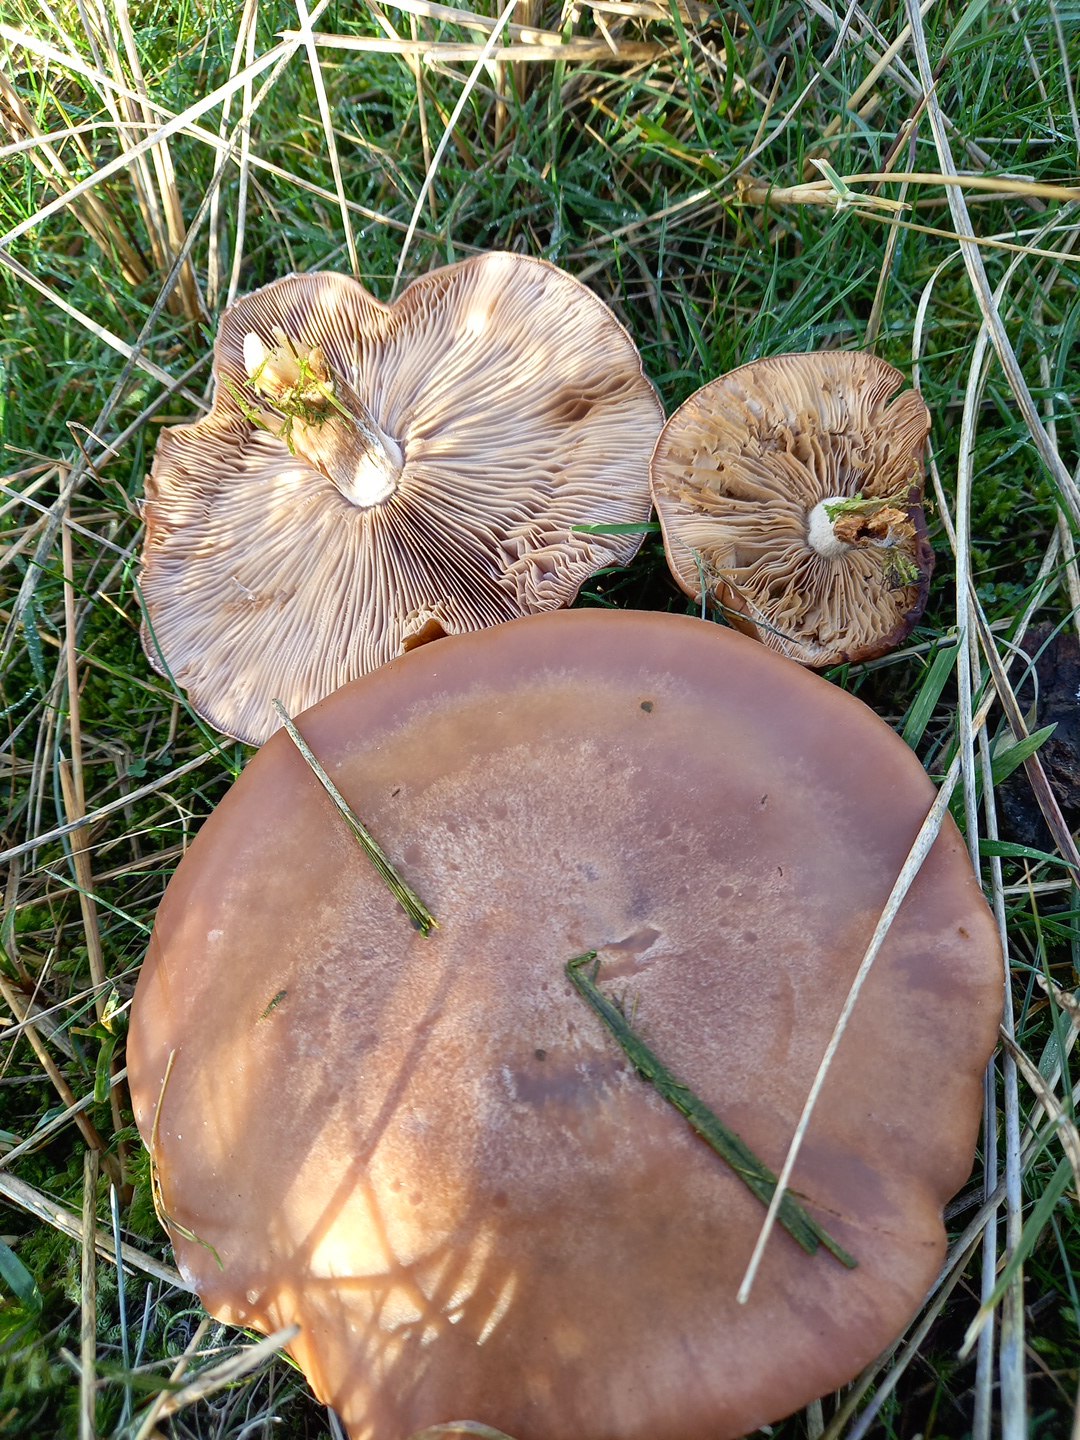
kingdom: Fungi
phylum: Basidiomycota
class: Agaricomycetes
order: Agaricales
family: Tricholomataceae
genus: Lepista
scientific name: Lepista
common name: hekseringshat
